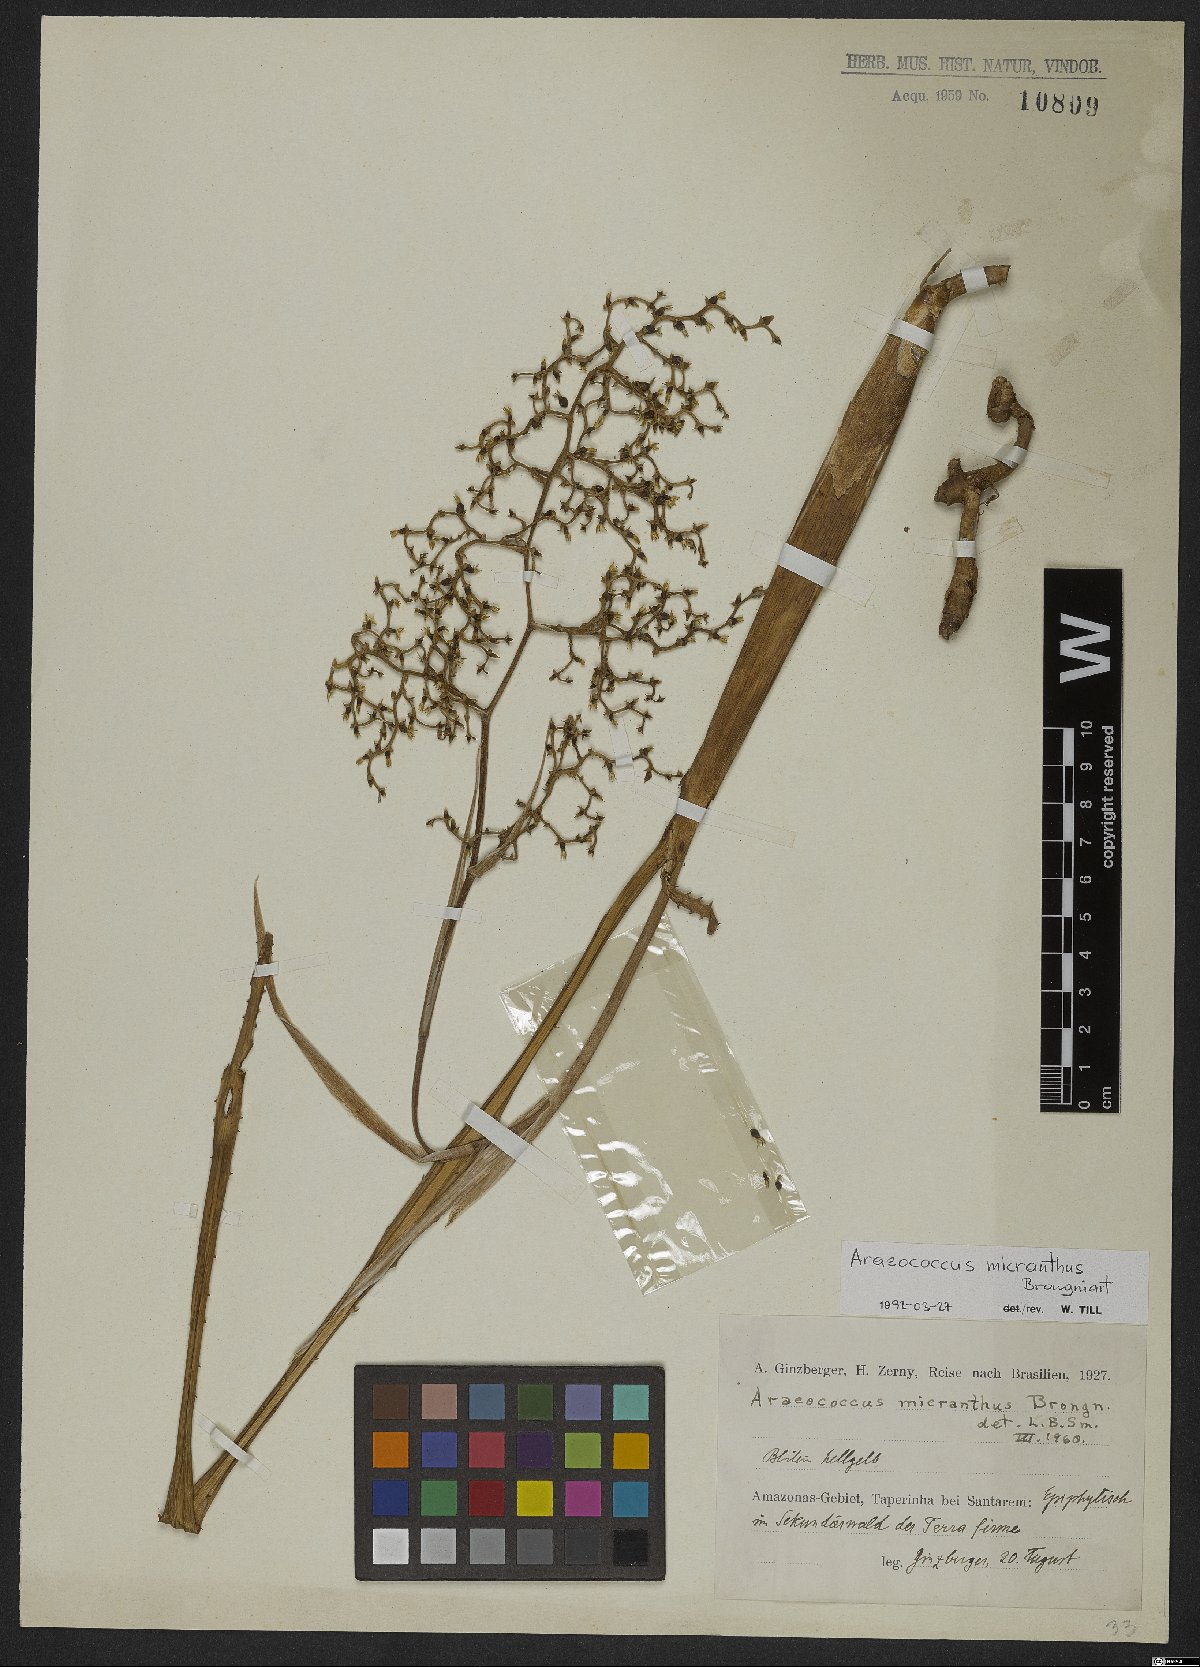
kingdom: Plantae
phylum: Tracheophyta
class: Liliopsida
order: Poales
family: Bromeliaceae
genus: Araeococcus
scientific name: Araeococcus micranthus
